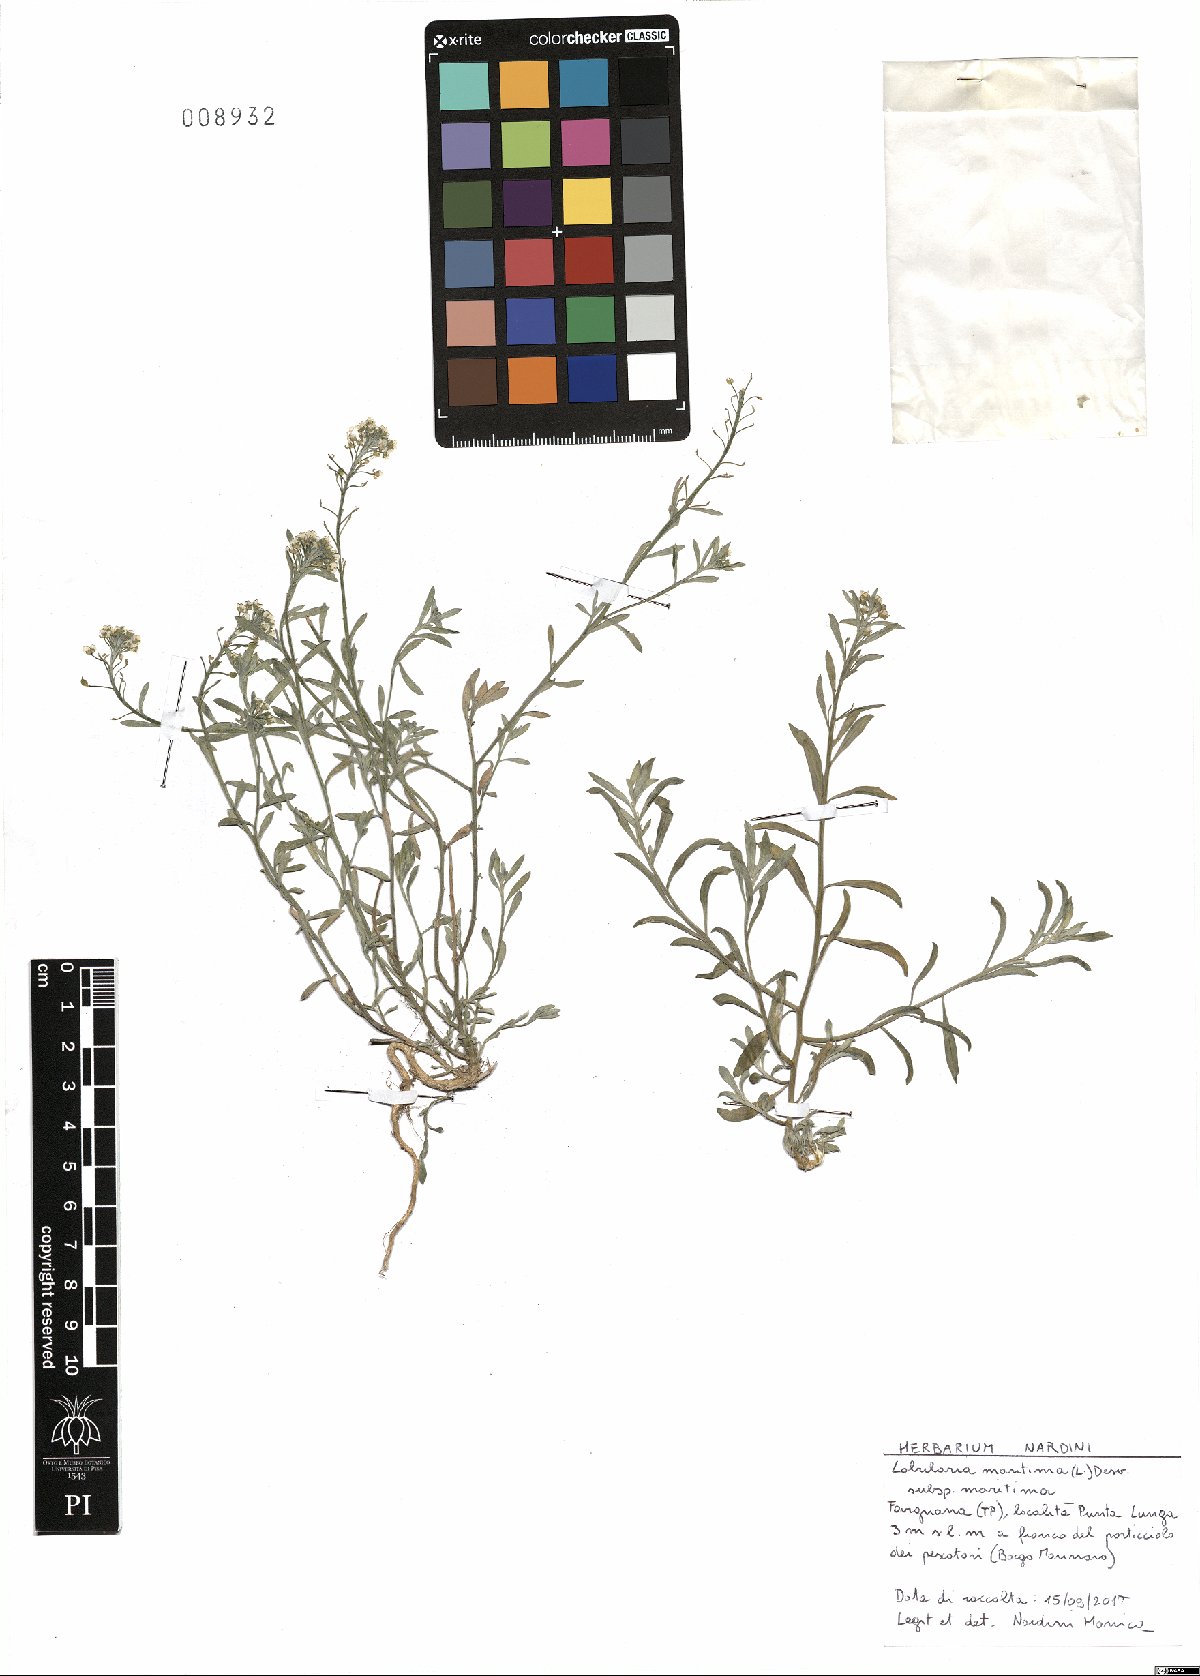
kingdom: Plantae
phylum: Tracheophyta
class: Magnoliopsida
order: Brassicales
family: Brassicaceae
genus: Lobularia
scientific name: Lobularia maritima
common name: Sweet alison
